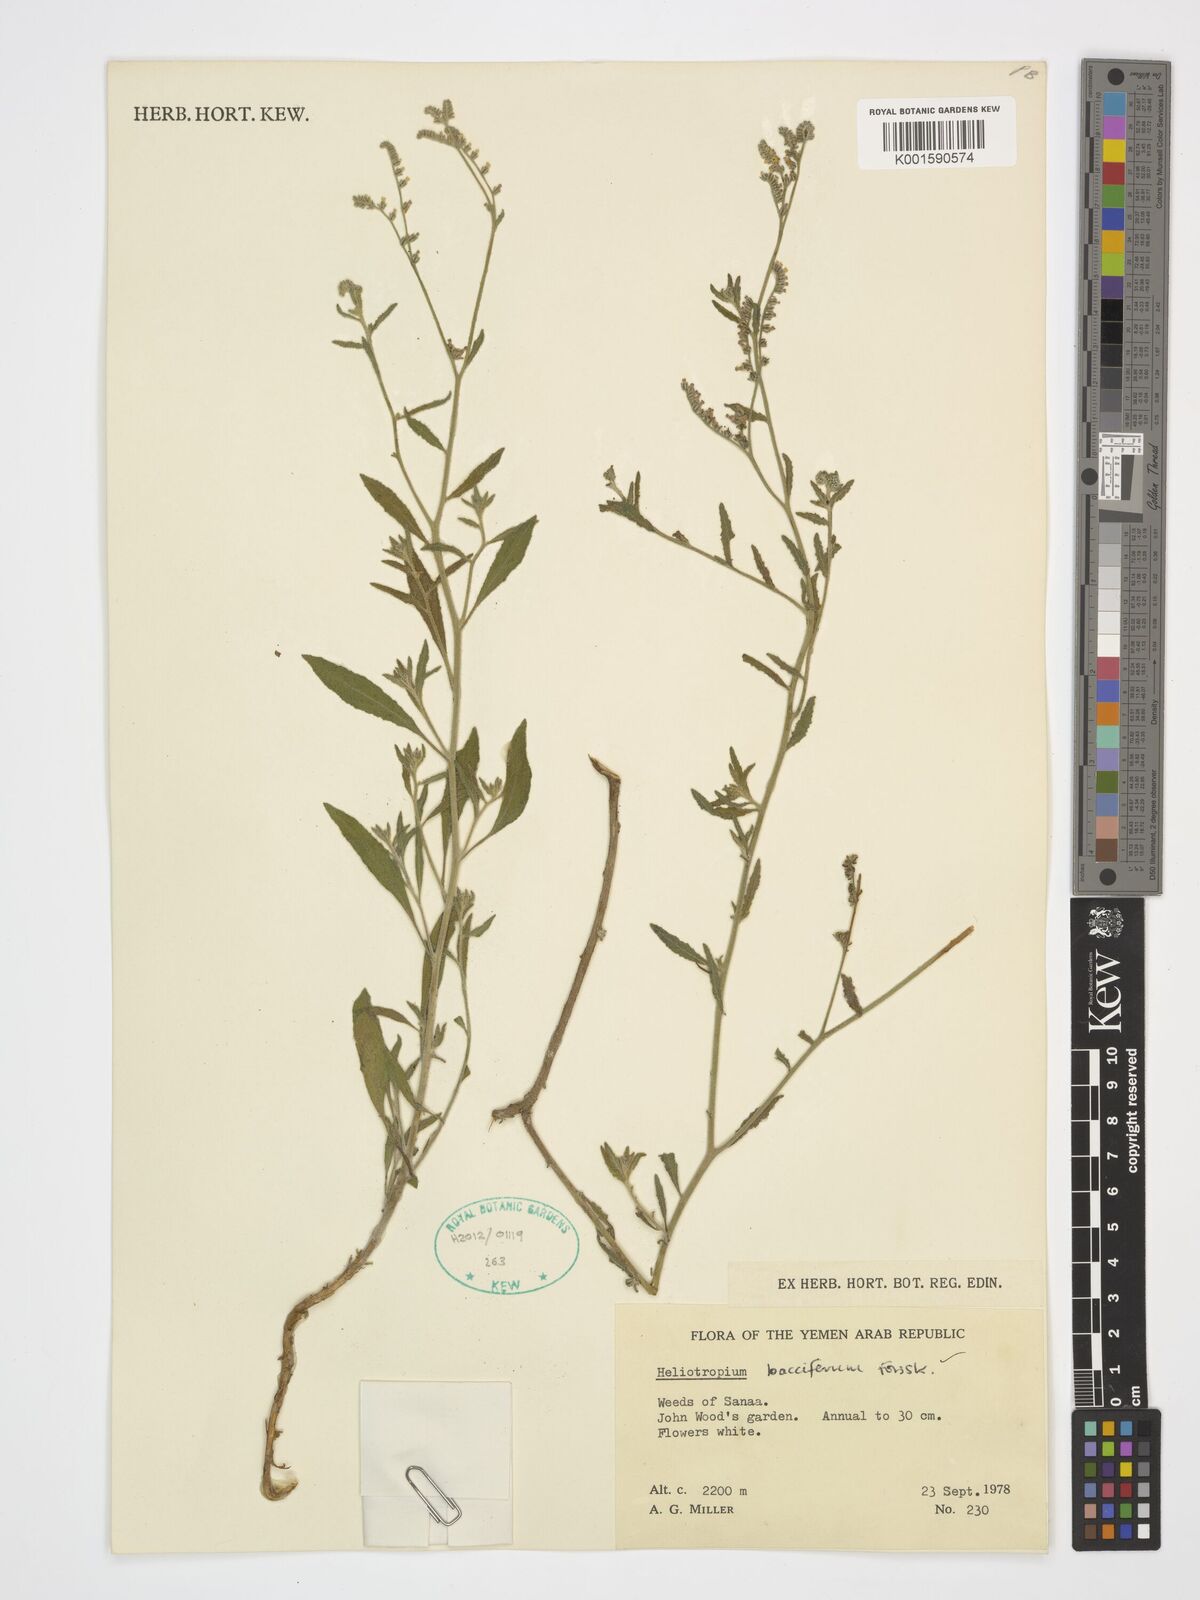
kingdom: Plantae
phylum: Tracheophyta
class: Magnoliopsida
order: Boraginales
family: Heliotropiaceae
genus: Heliotropium
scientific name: Heliotropium bacciferum
